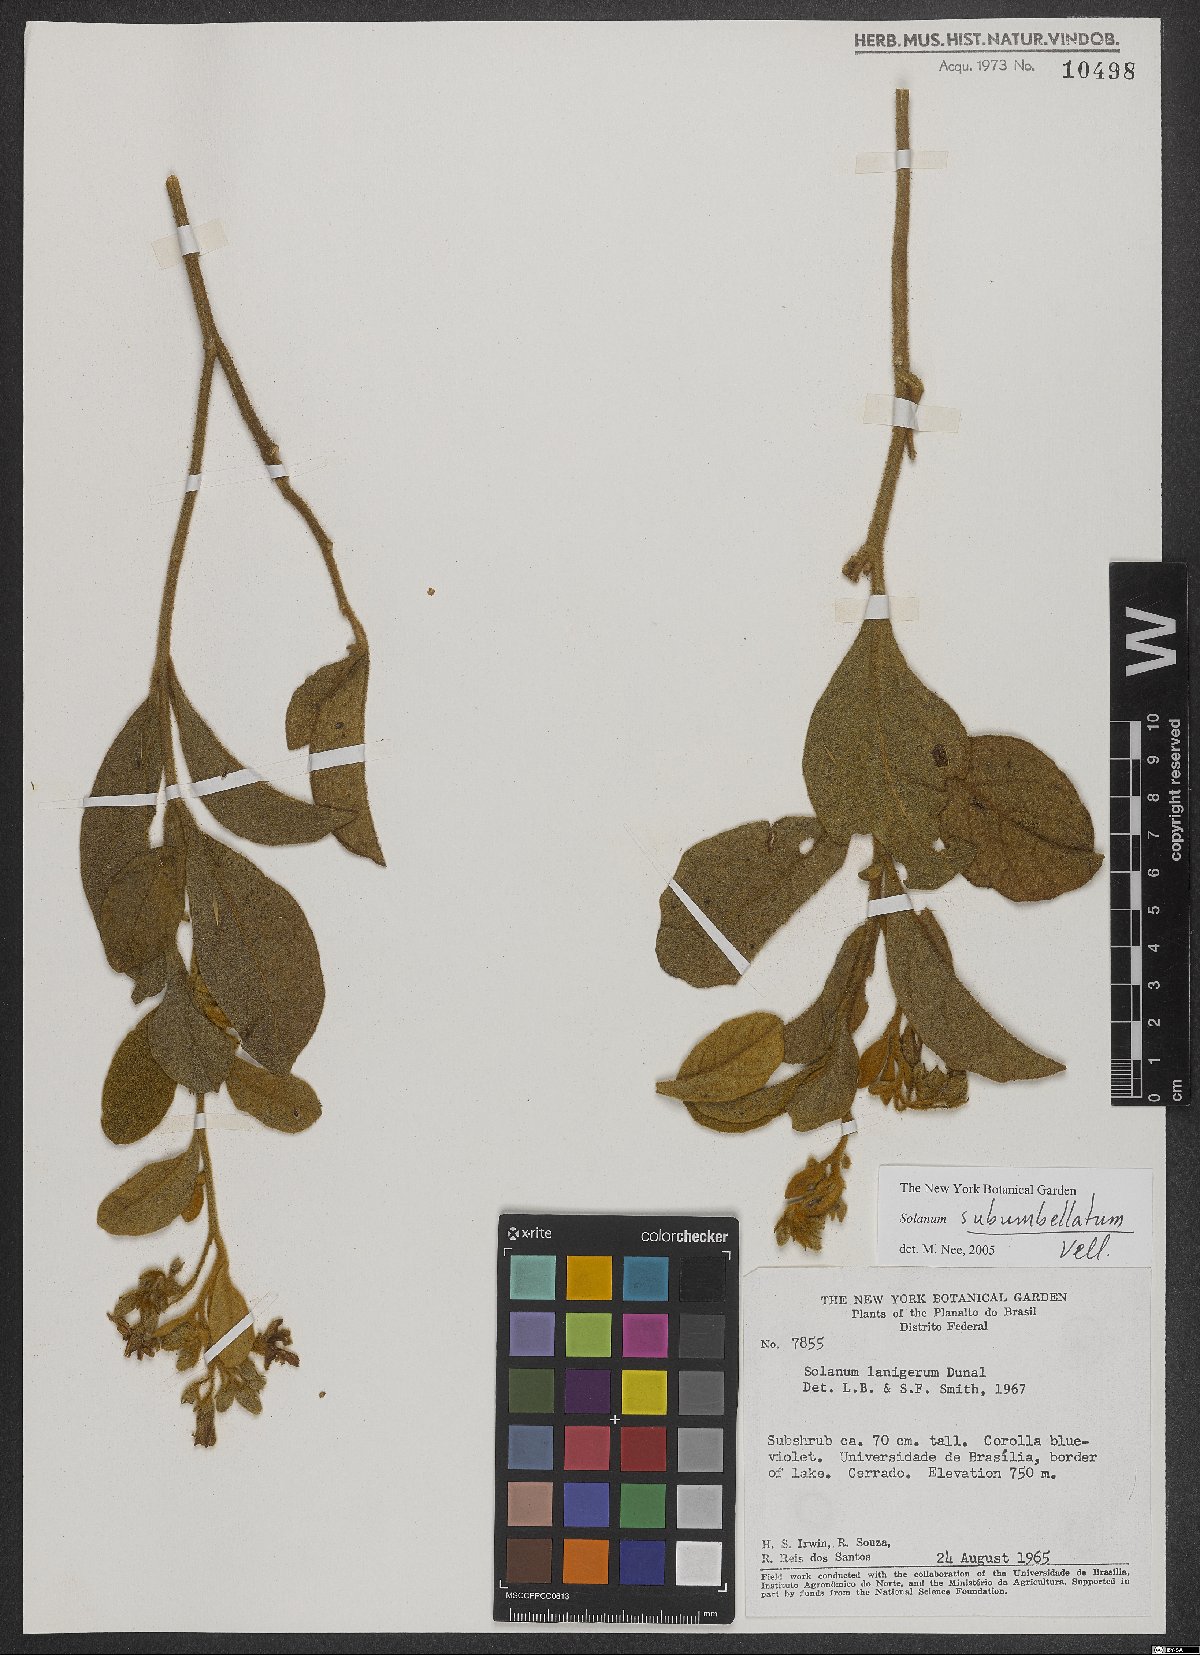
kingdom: Plantae
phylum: Tracheophyta
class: Magnoliopsida
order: Solanales
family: Solanaceae
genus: Solanum
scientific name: Solanum subumbellatum
